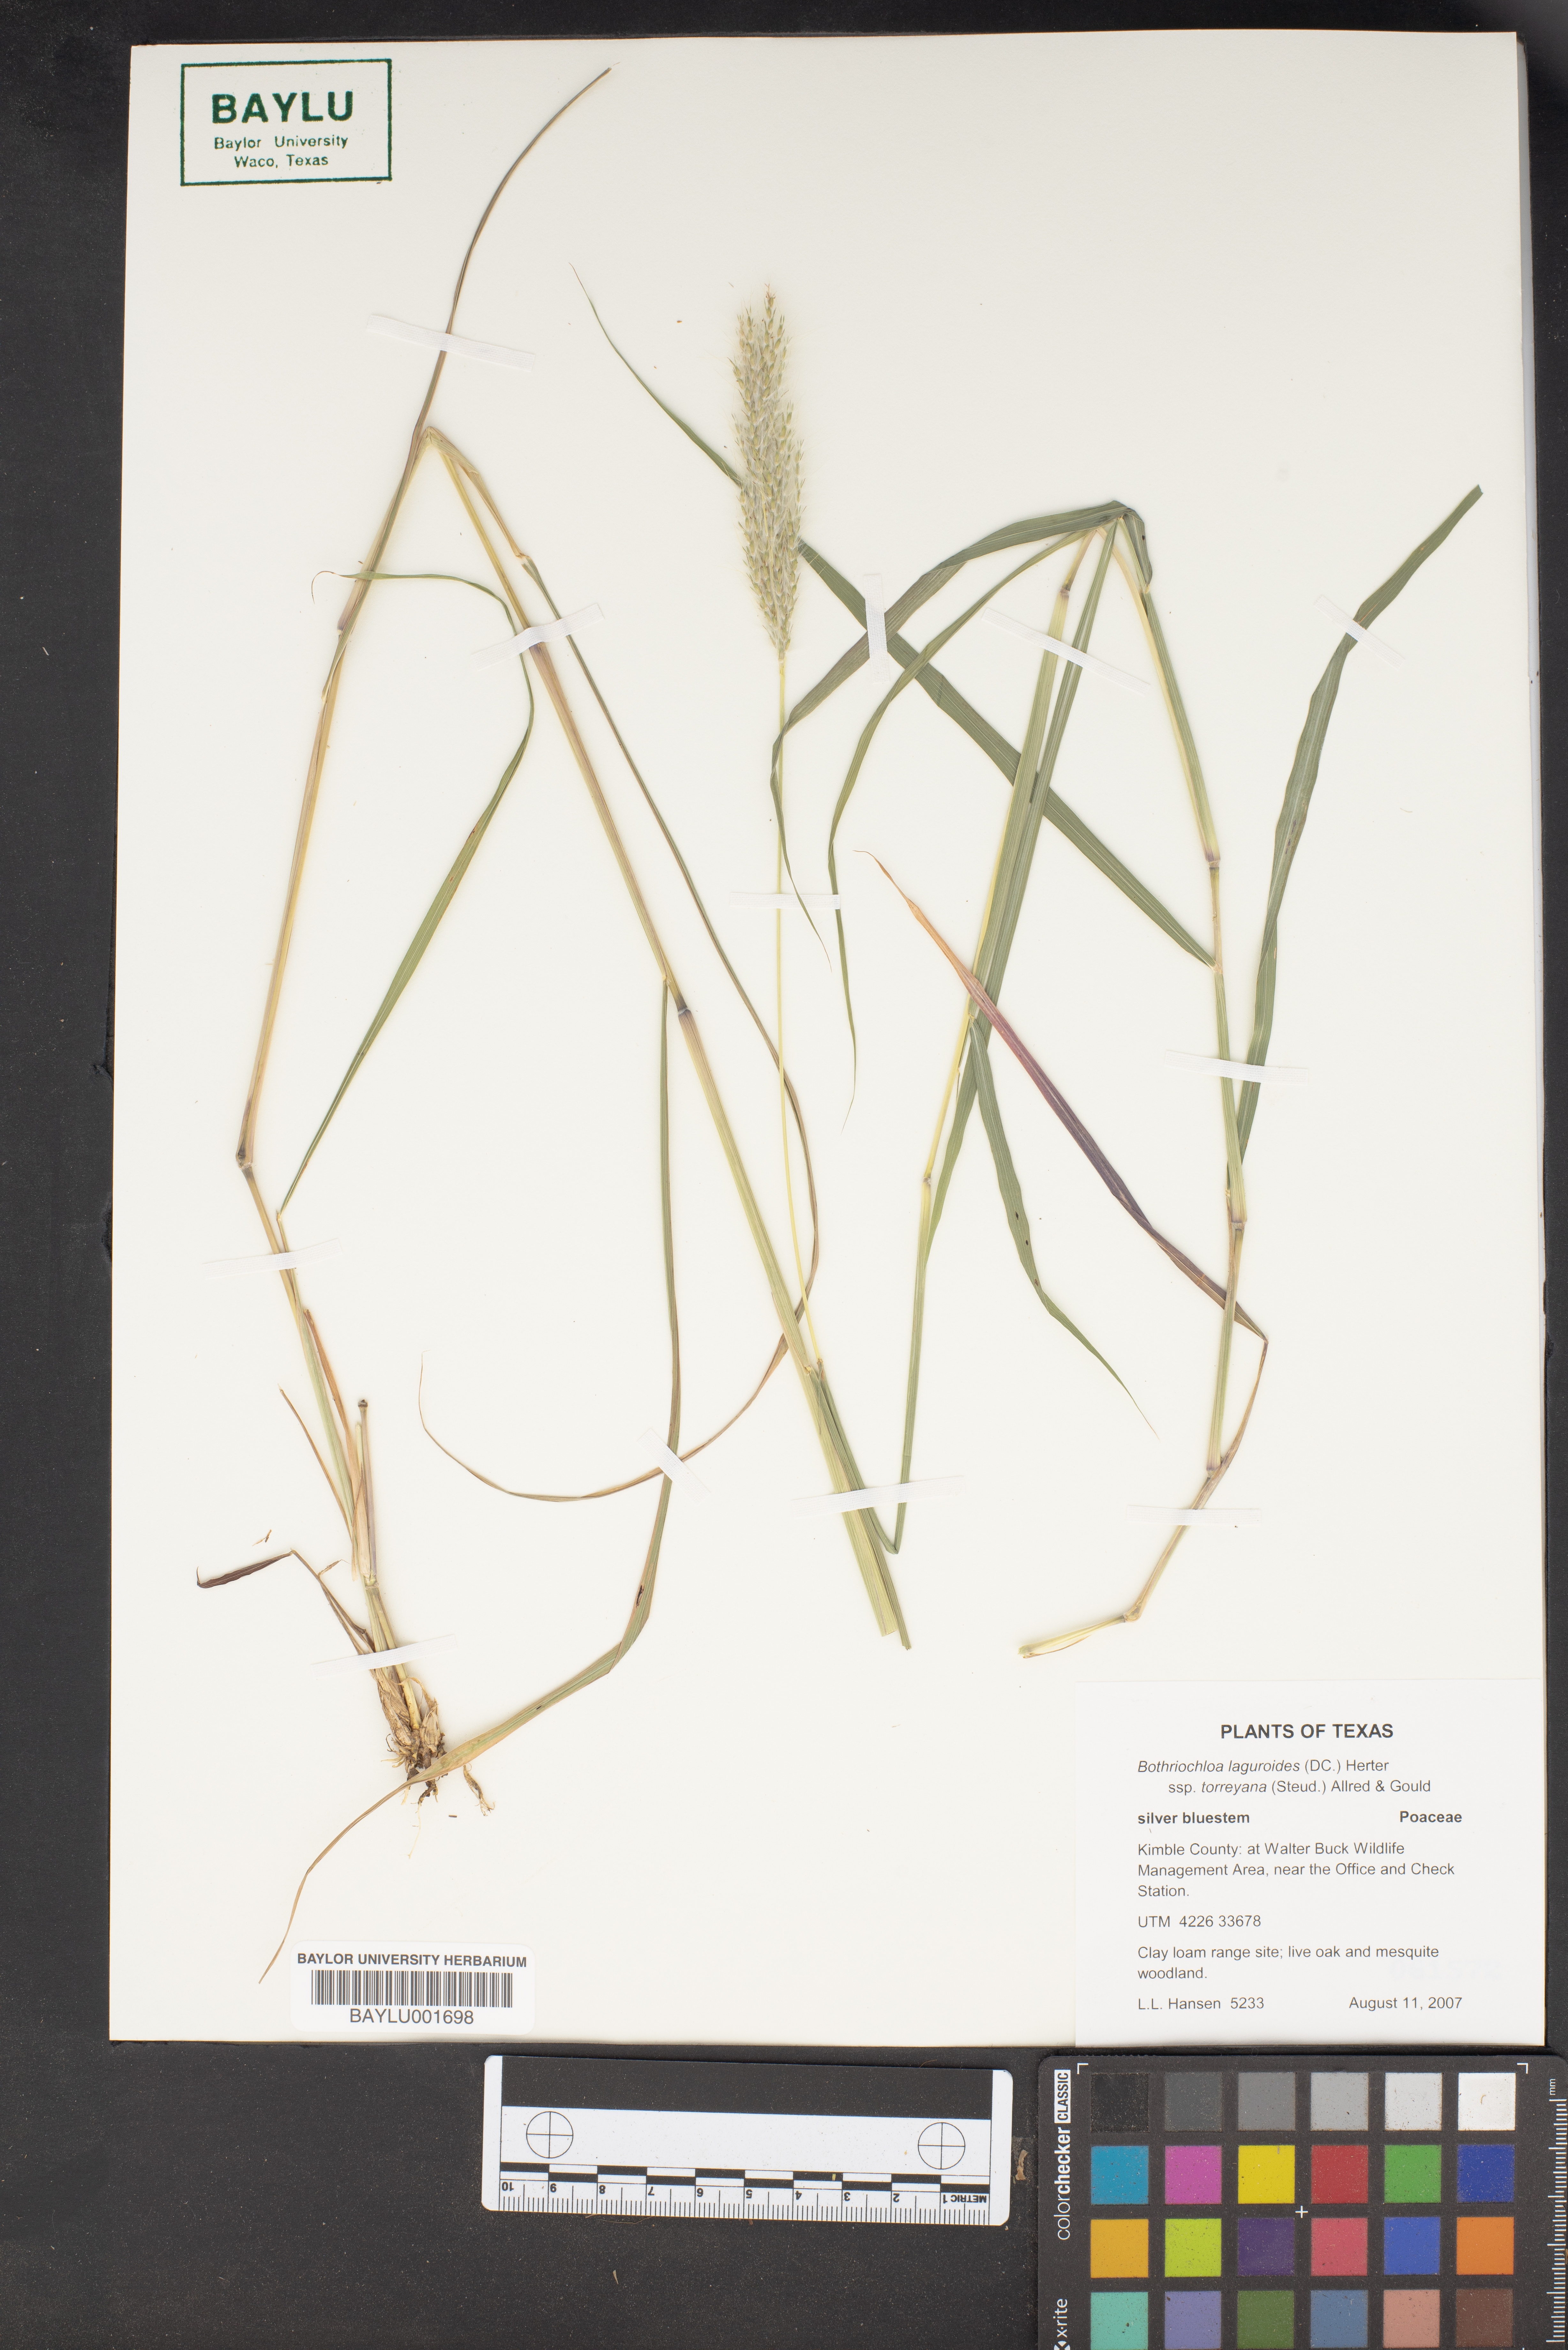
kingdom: Plantae
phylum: Tracheophyta
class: Liliopsida
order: Poales
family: Poaceae
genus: Bothriochloa
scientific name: Bothriochloa laguroides
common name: Silver bluestem
